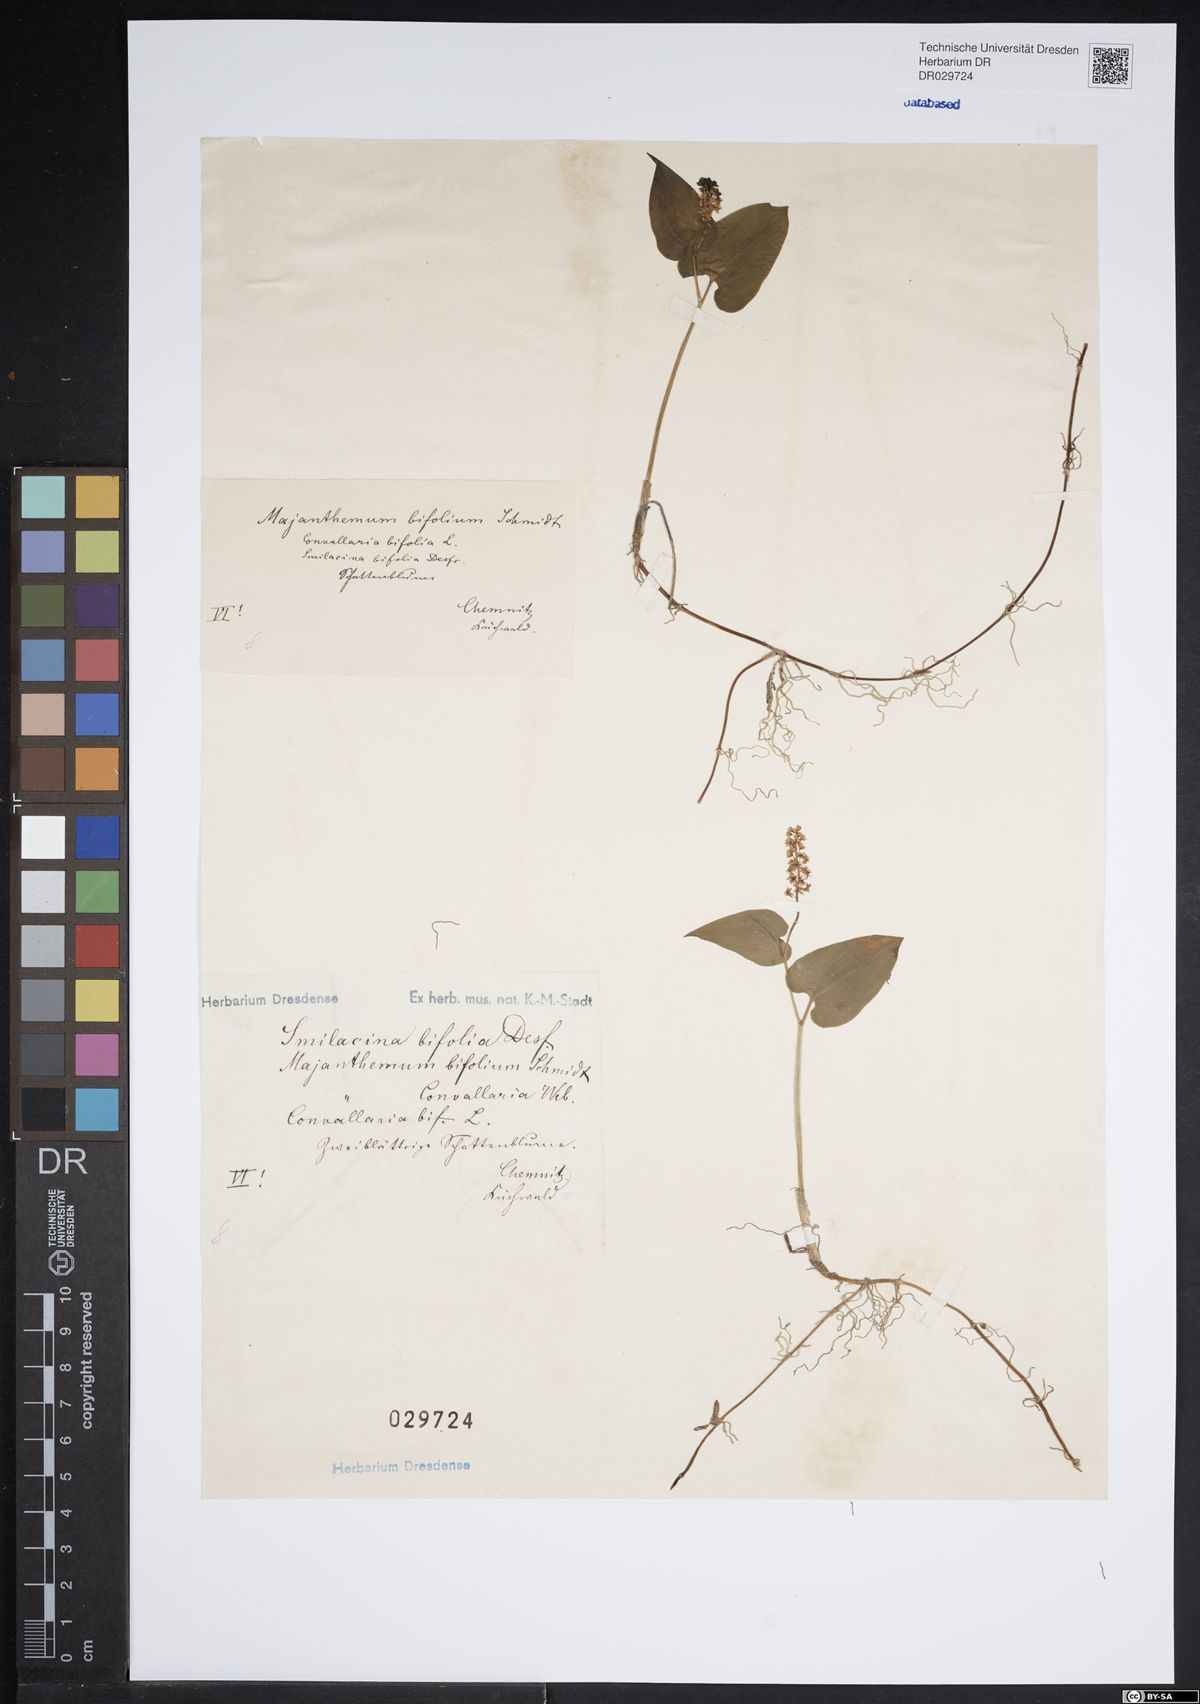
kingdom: Plantae
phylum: Tracheophyta
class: Liliopsida
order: Asparagales
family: Asparagaceae
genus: Maianthemum
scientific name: Maianthemum bifolium
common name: May lily
